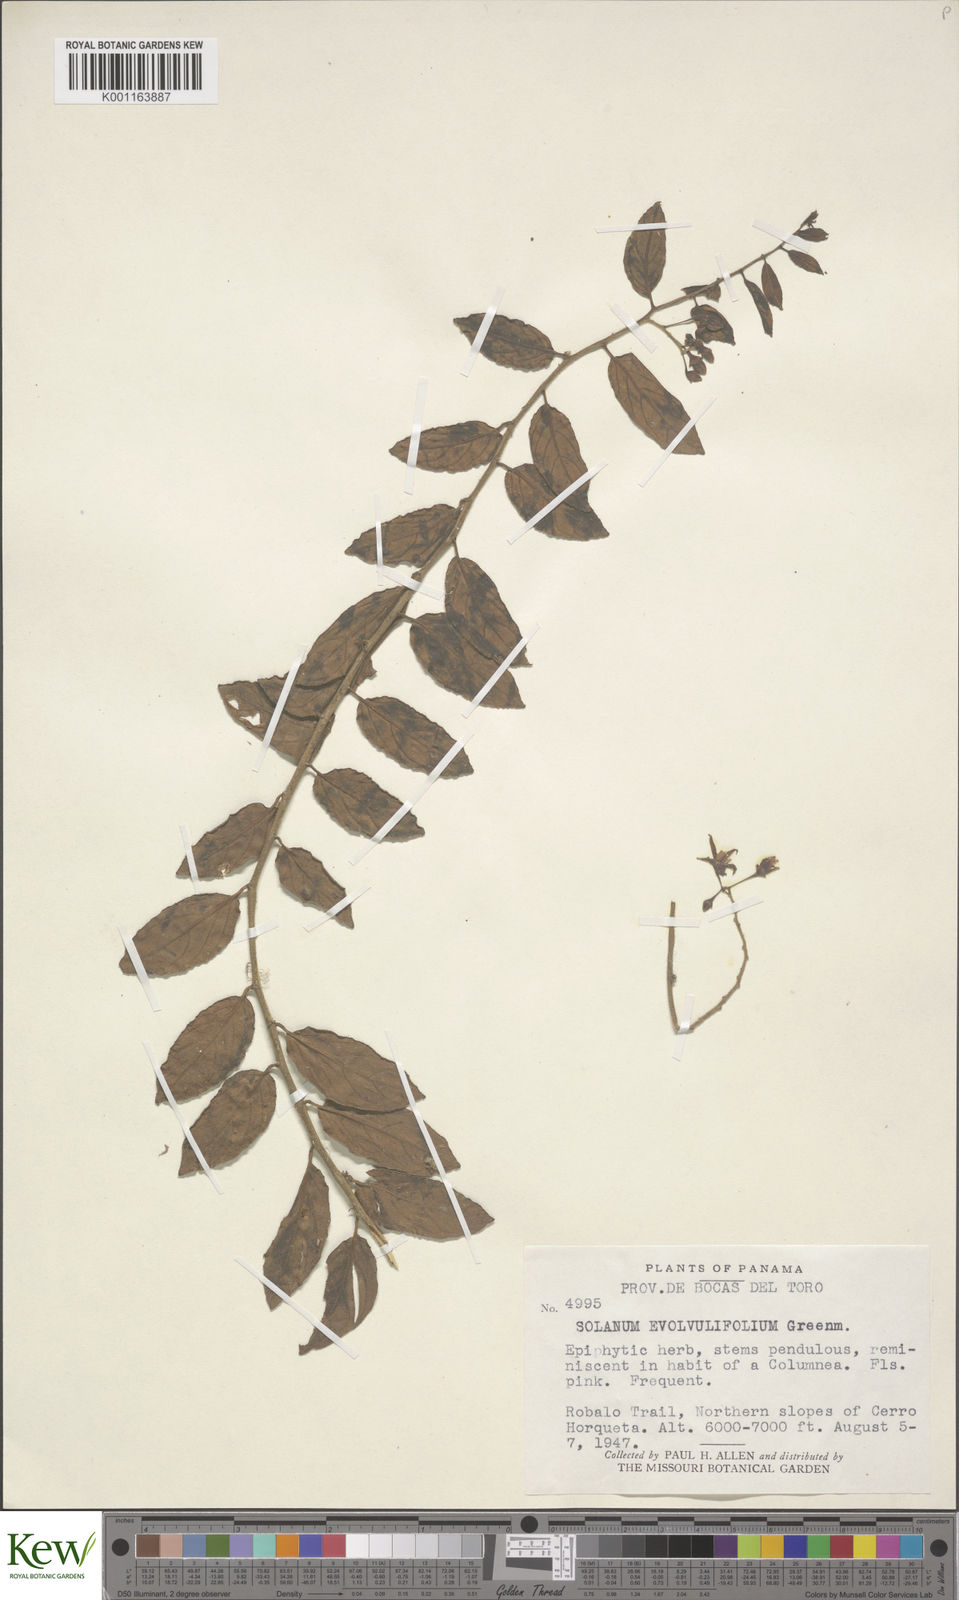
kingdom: Plantae
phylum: Tracheophyta
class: Magnoliopsida
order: Solanales
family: Solanaceae
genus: Solanum
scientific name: Solanum evolvulifolium
